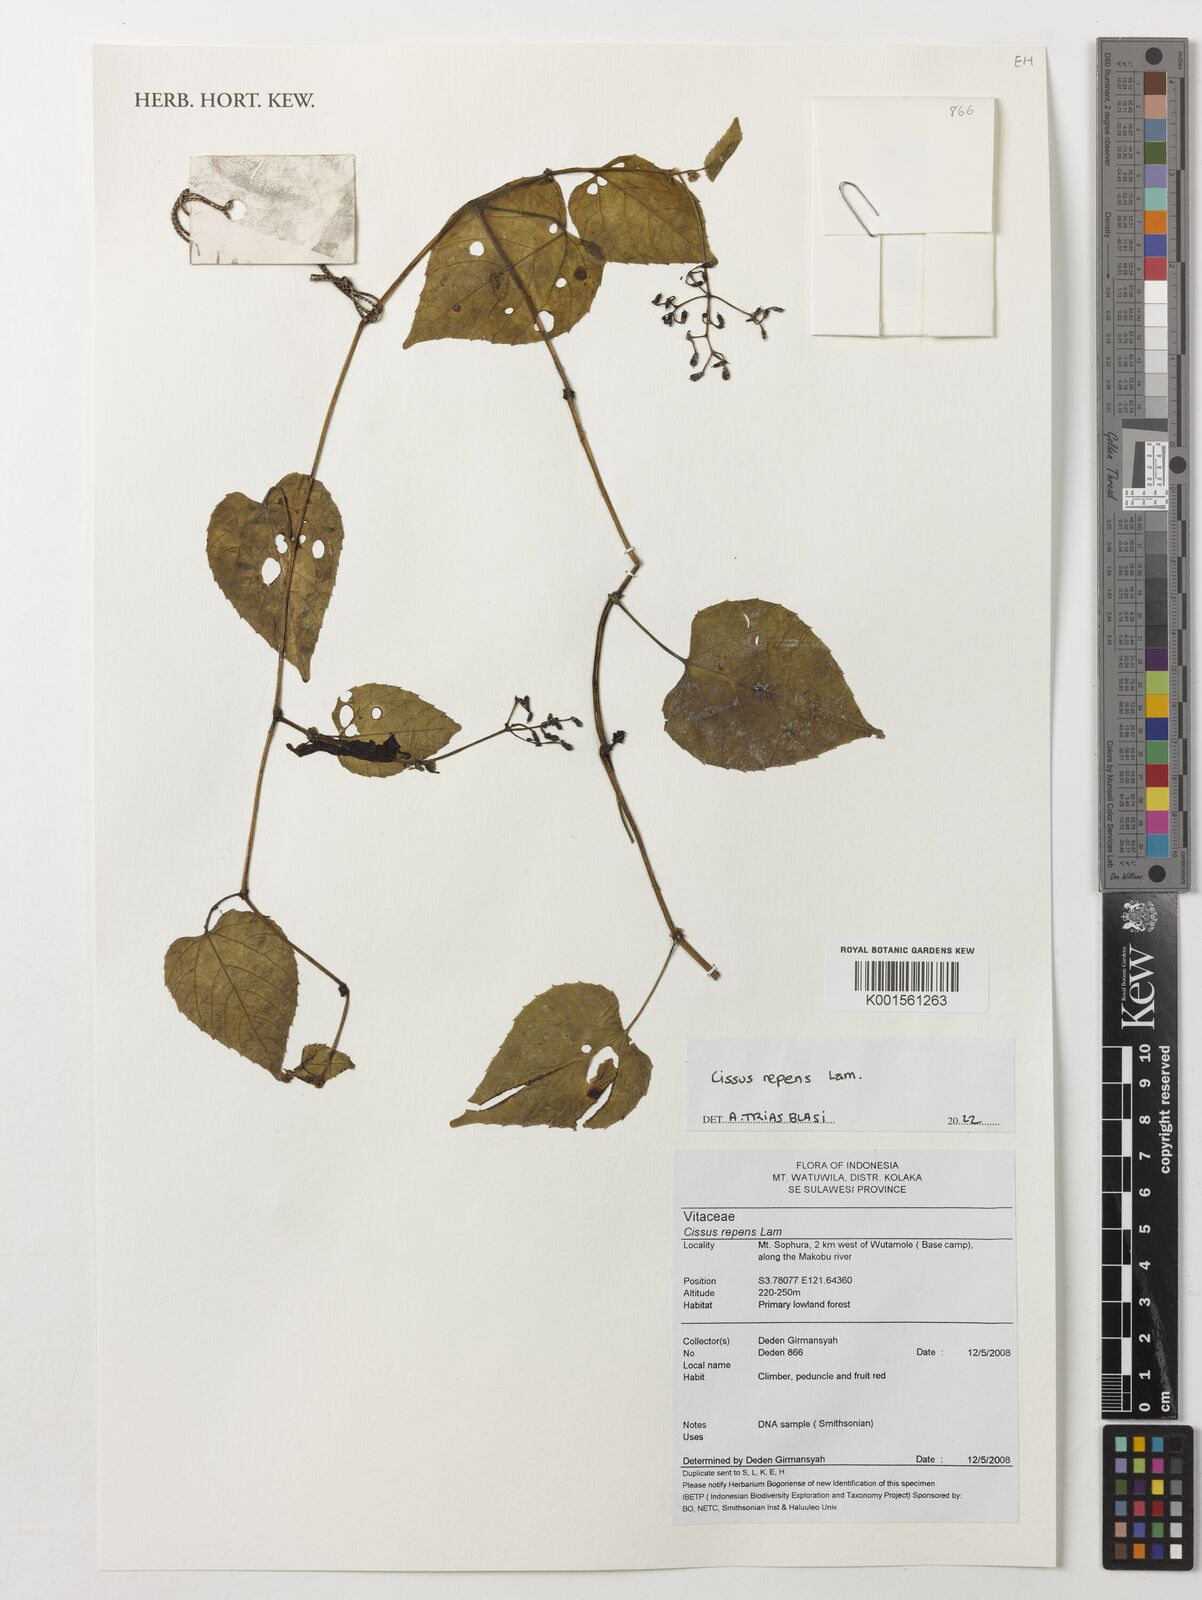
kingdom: Plantae
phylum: Tracheophyta
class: Magnoliopsida
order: Vitales
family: Vitaceae
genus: Cissus
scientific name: Cissus repens
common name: Cissus
